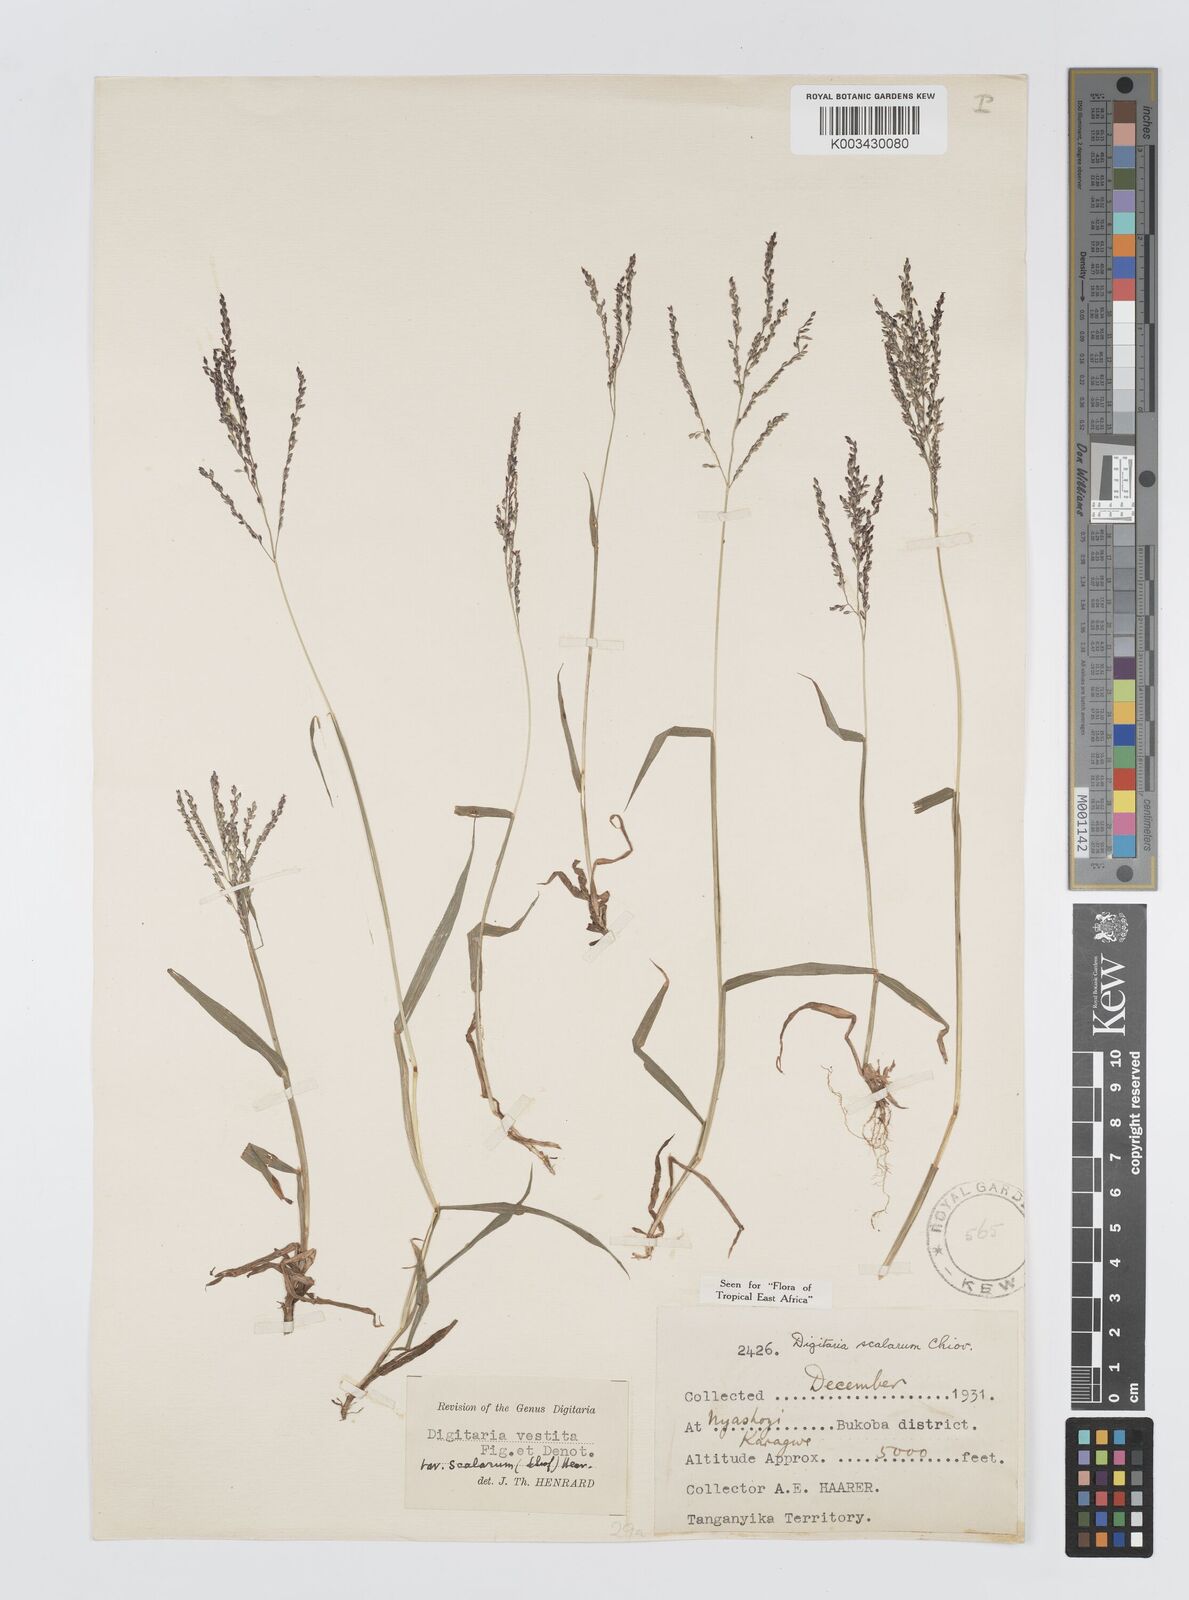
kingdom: Plantae
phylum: Tracheophyta
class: Liliopsida
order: Poales
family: Poaceae
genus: Digitaria
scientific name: Digitaria abyssinica
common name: African couchgrass
